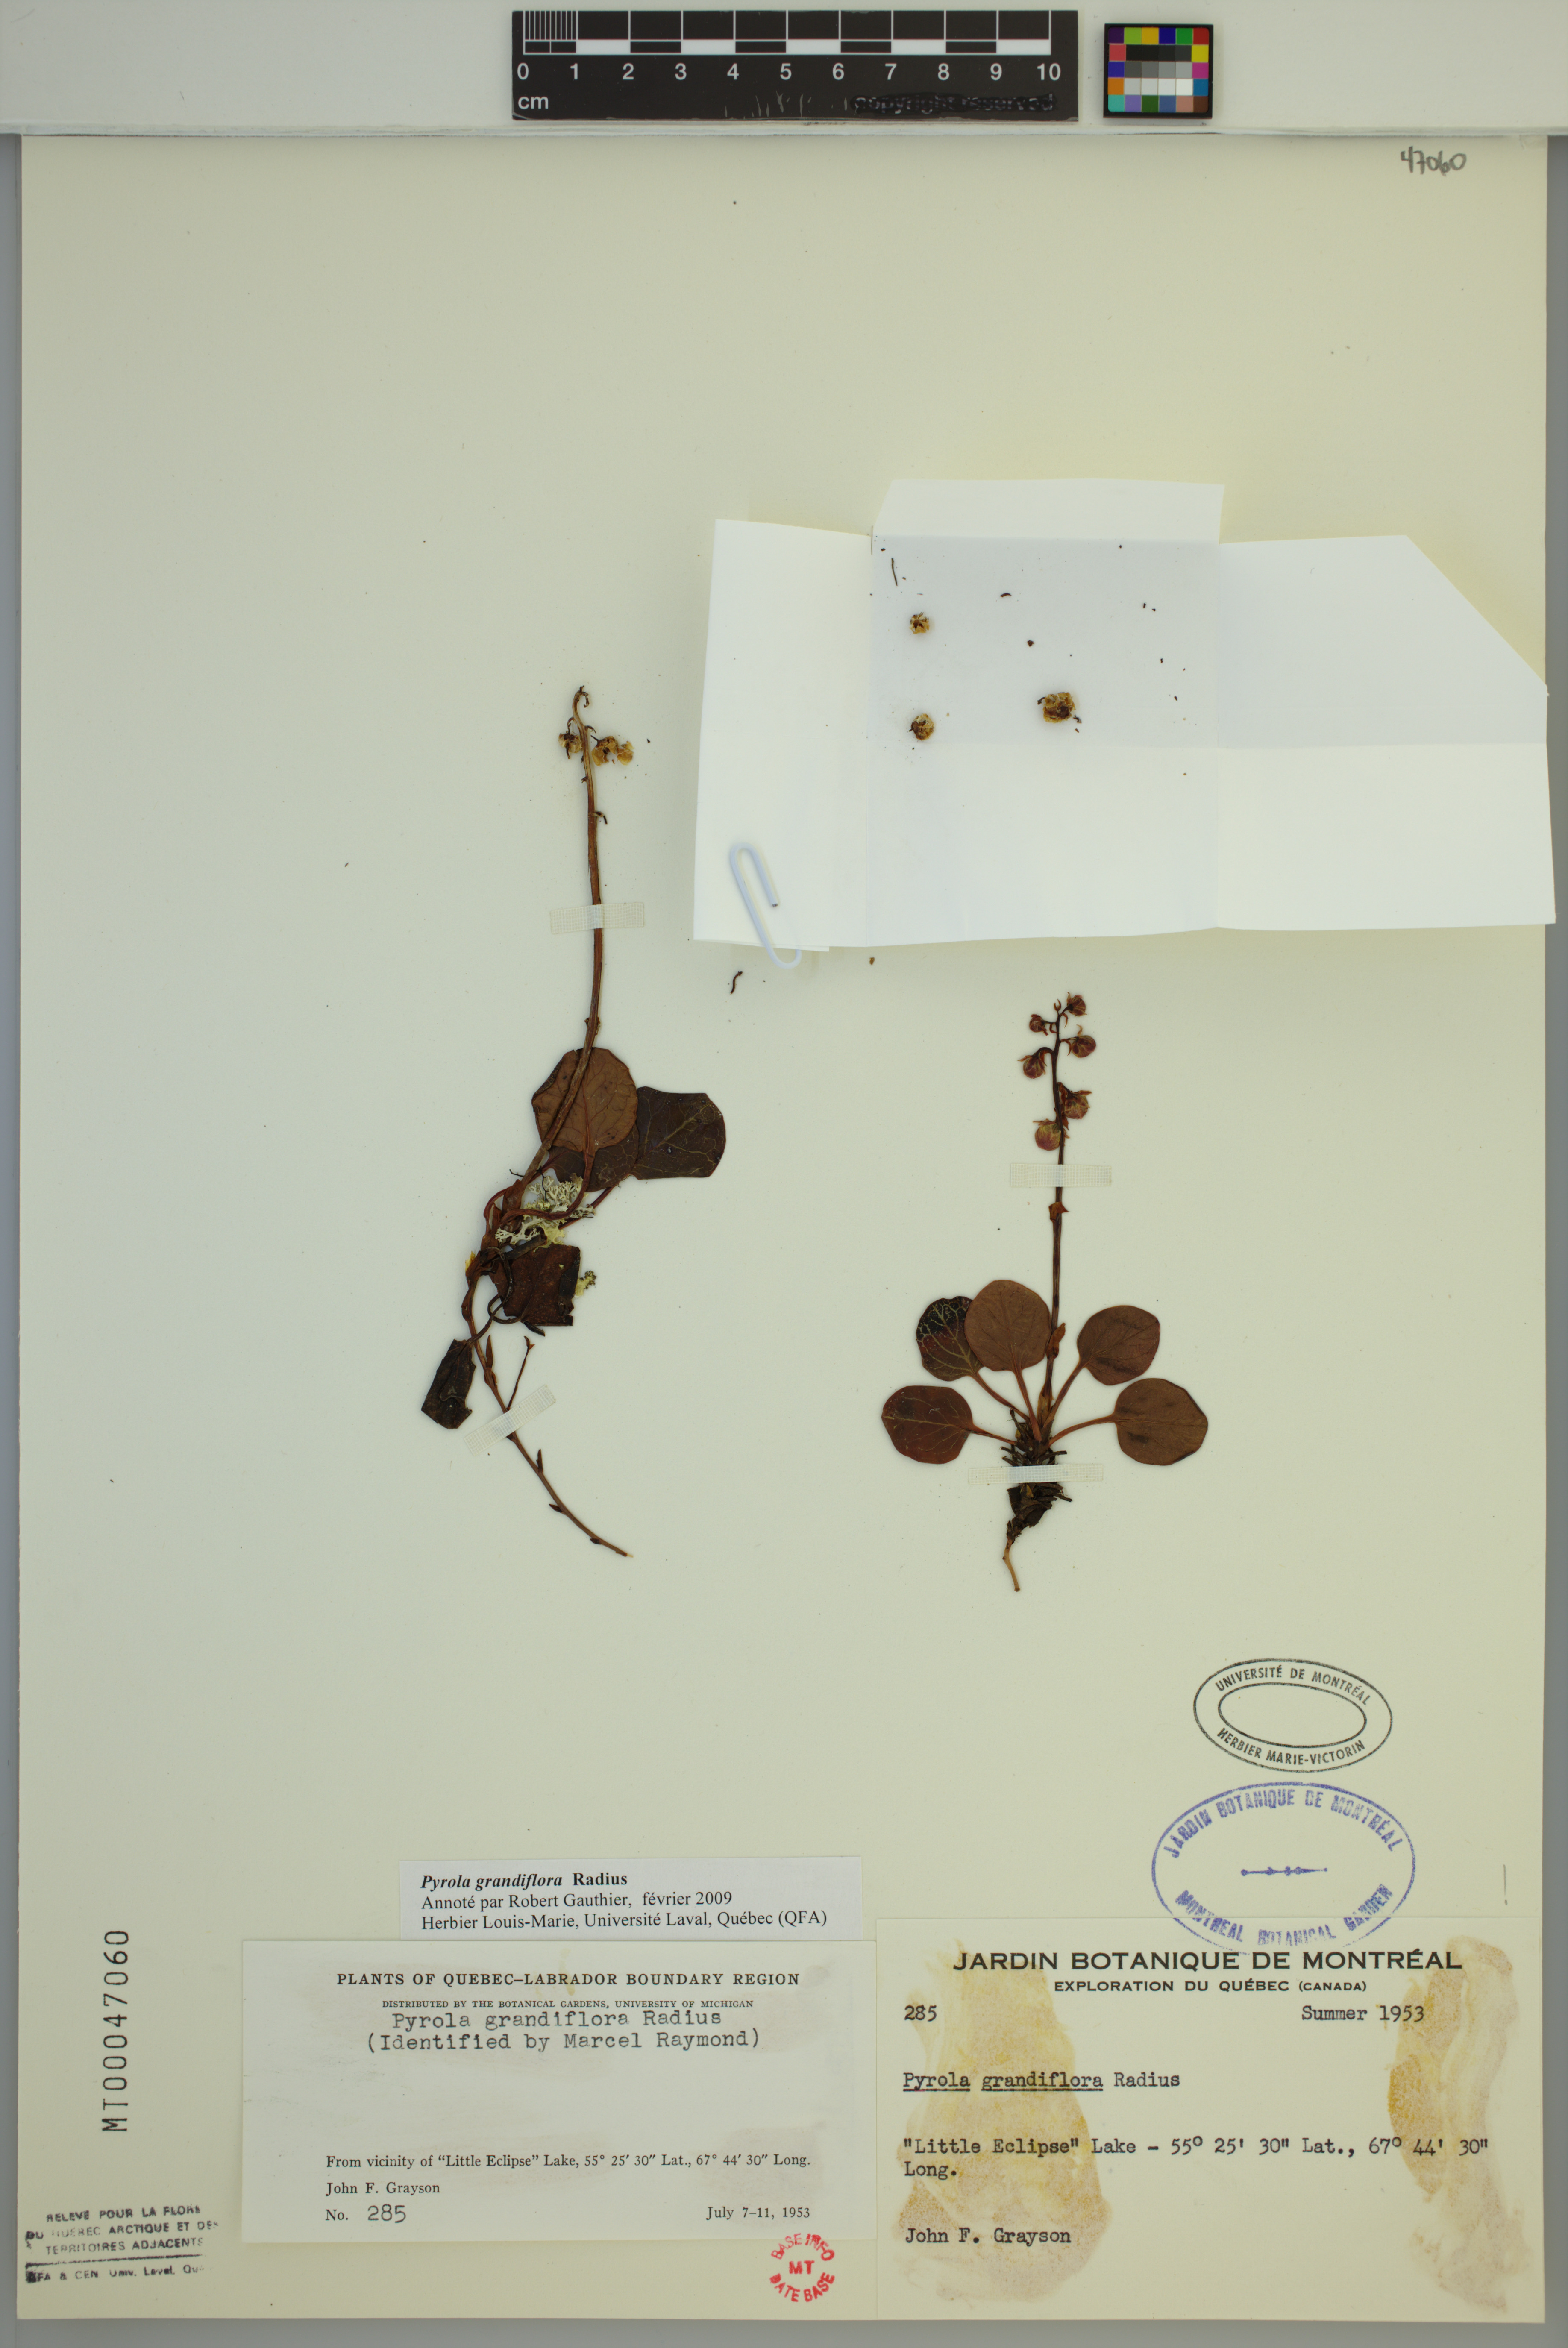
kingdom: Plantae
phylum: Tracheophyta
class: Magnoliopsida
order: Ericales
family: Ericaceae
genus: Pyrola
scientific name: Pyrola grandiflora
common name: Arctic pyrola
